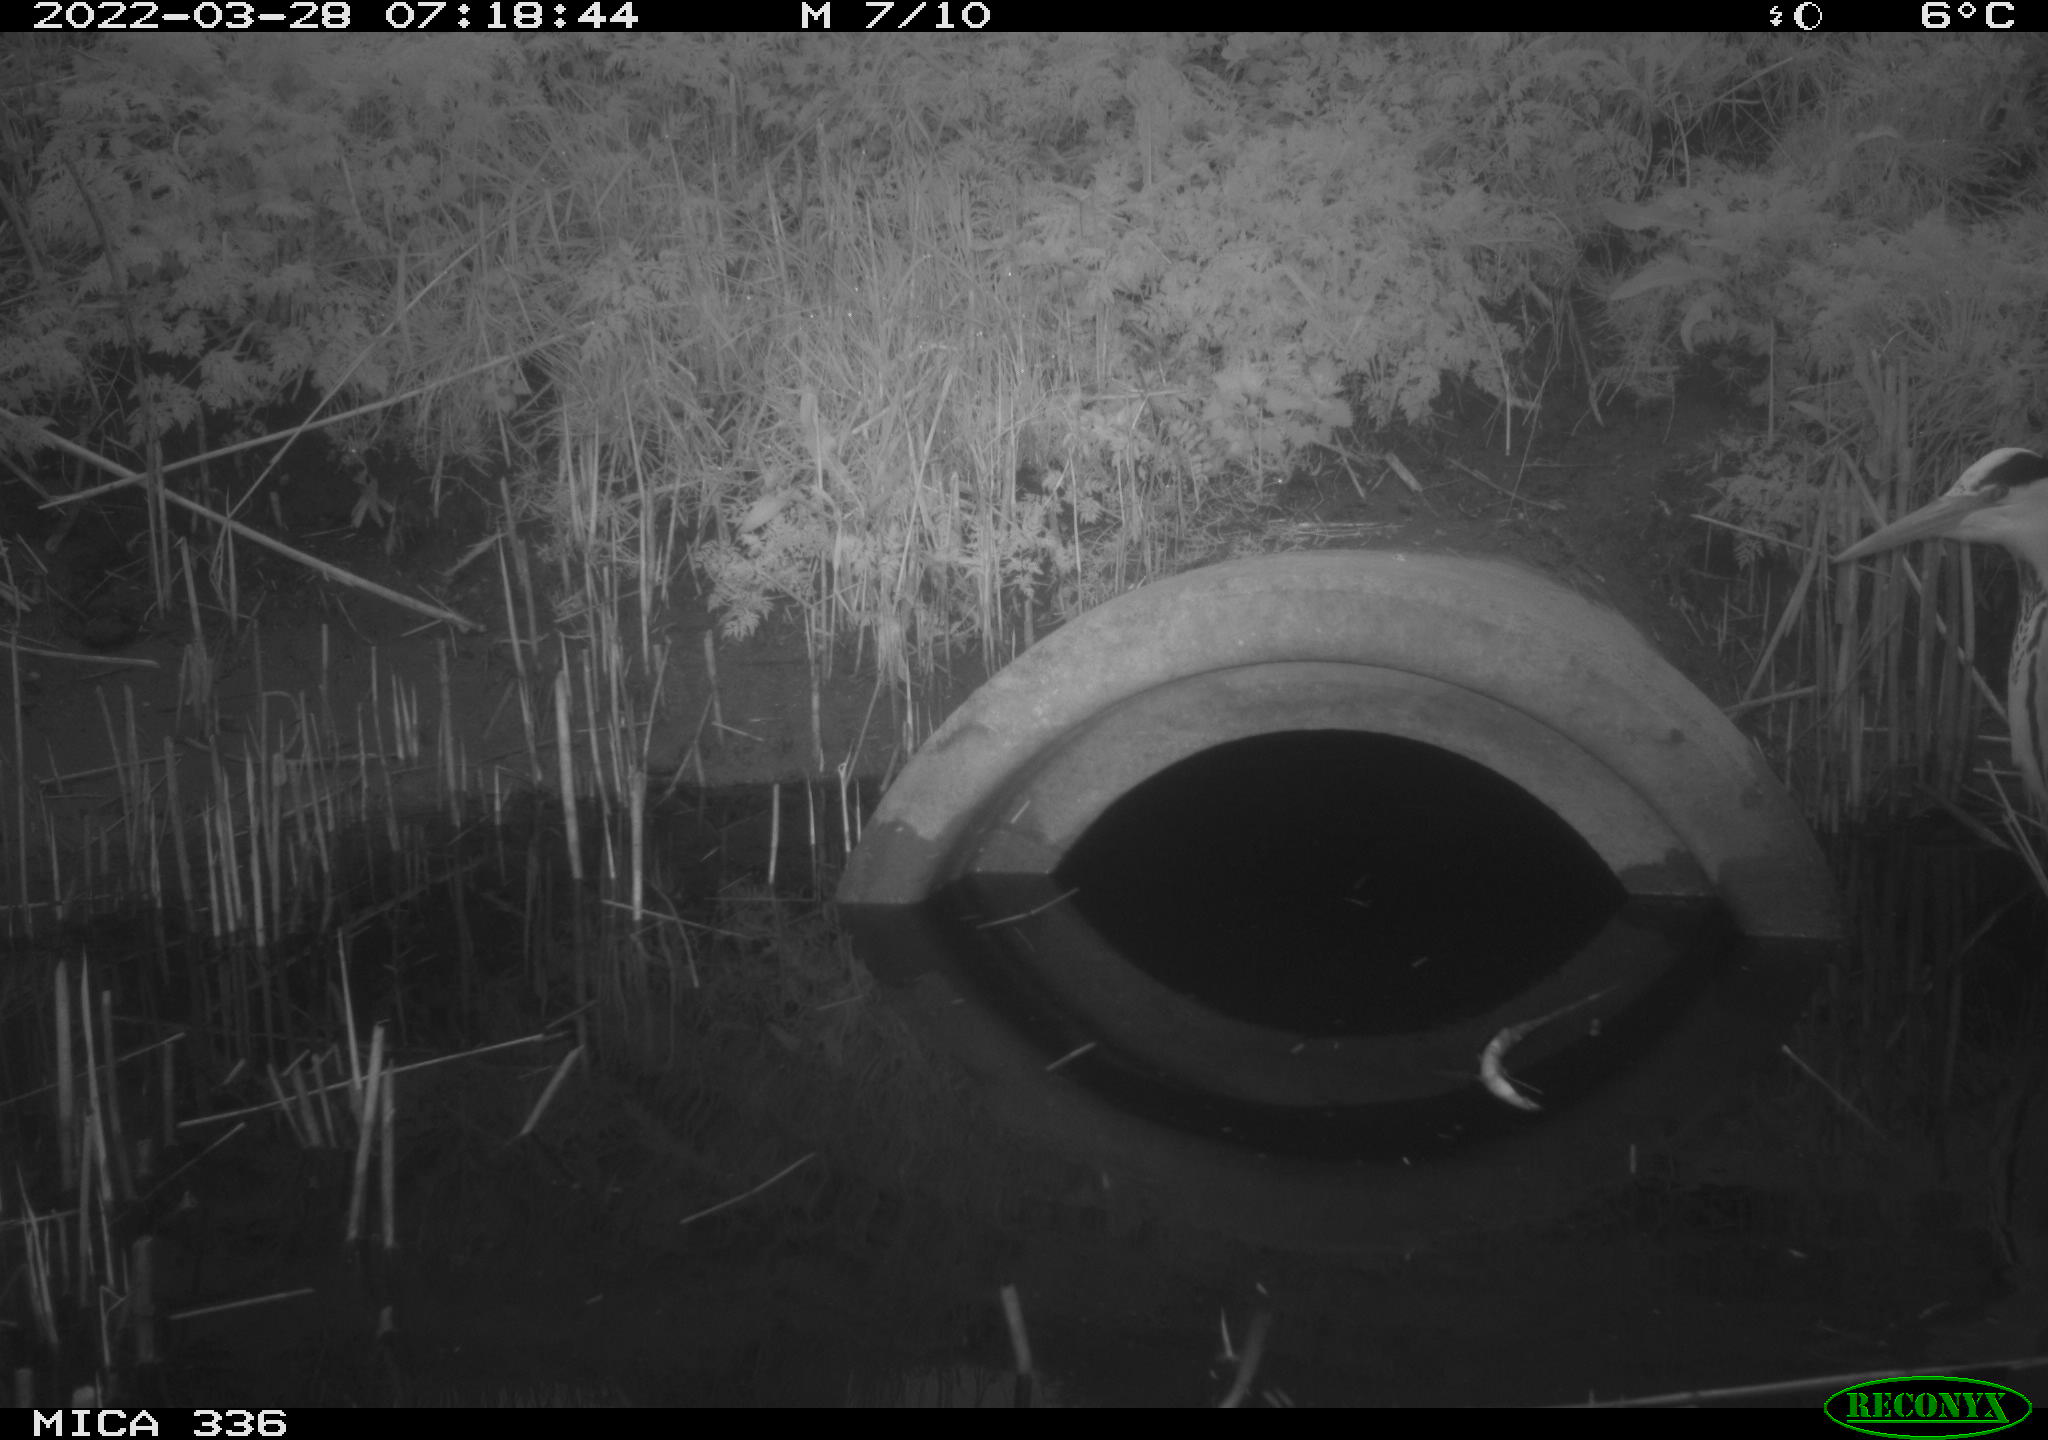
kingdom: Animalia
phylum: Chordata
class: Aves
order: Pelecaniformes
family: Ardeidae
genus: Ardea
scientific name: Ardea cinerea
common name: Grey heron
